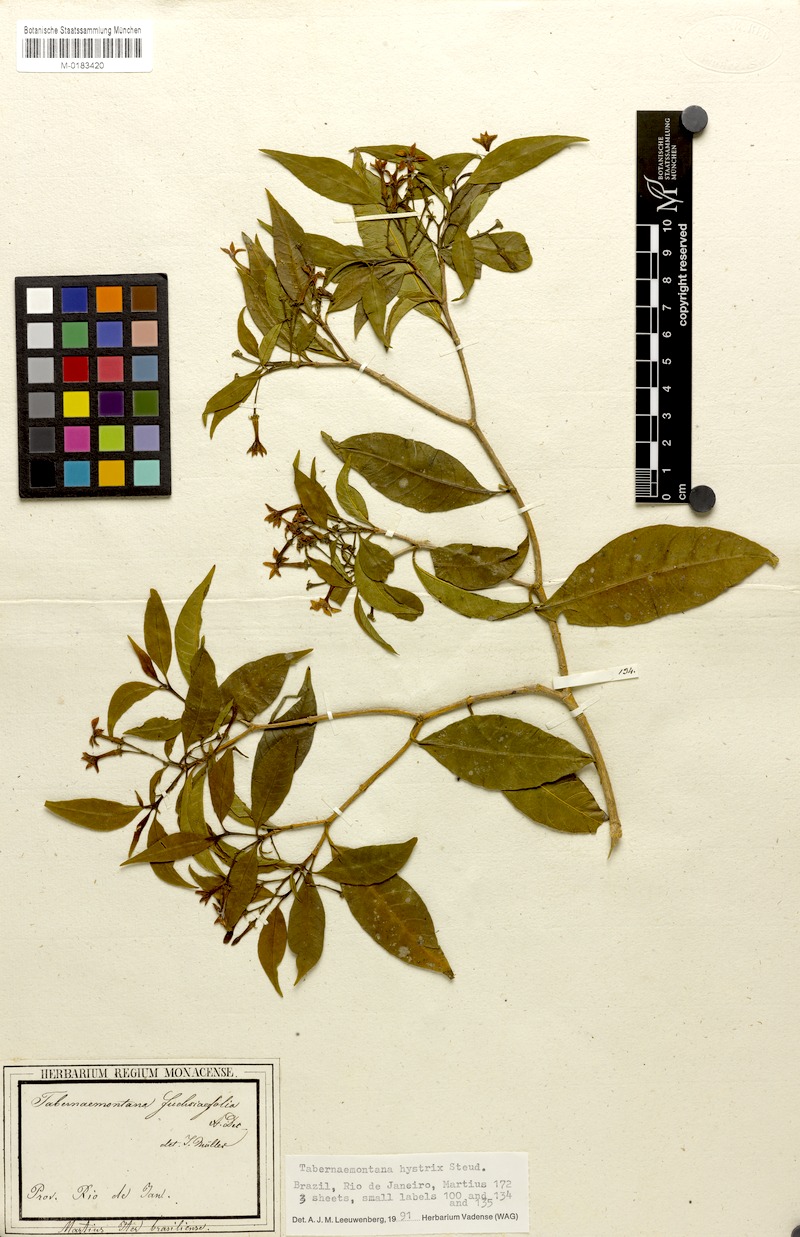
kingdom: Plantae
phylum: Tracheophyta
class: Magnoliopsida
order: Gentianales
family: Apocynaceae
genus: Tabernaemontana
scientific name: Tabernaemontana hystrix
